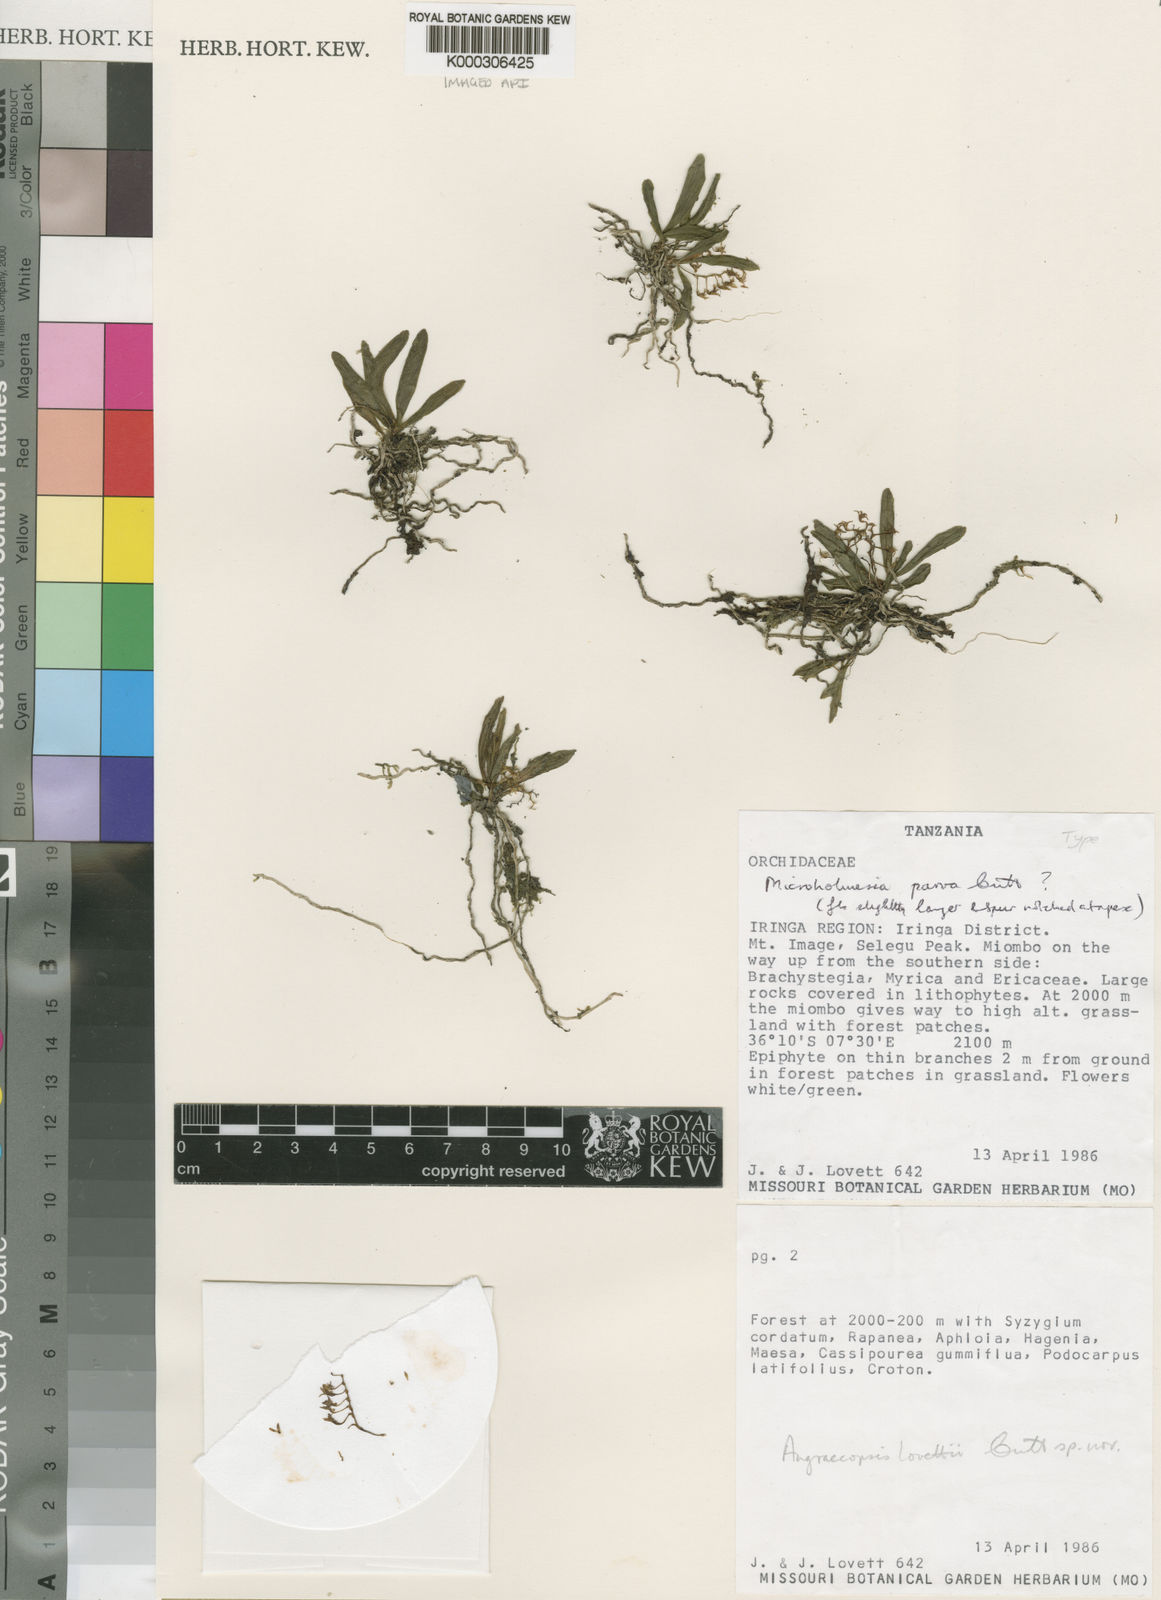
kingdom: Plantae
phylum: Tracheophyta
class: Liliopsida
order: Asparagales
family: Orchidaceae
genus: Angraecopsis
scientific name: Angraecopsis lovettii
